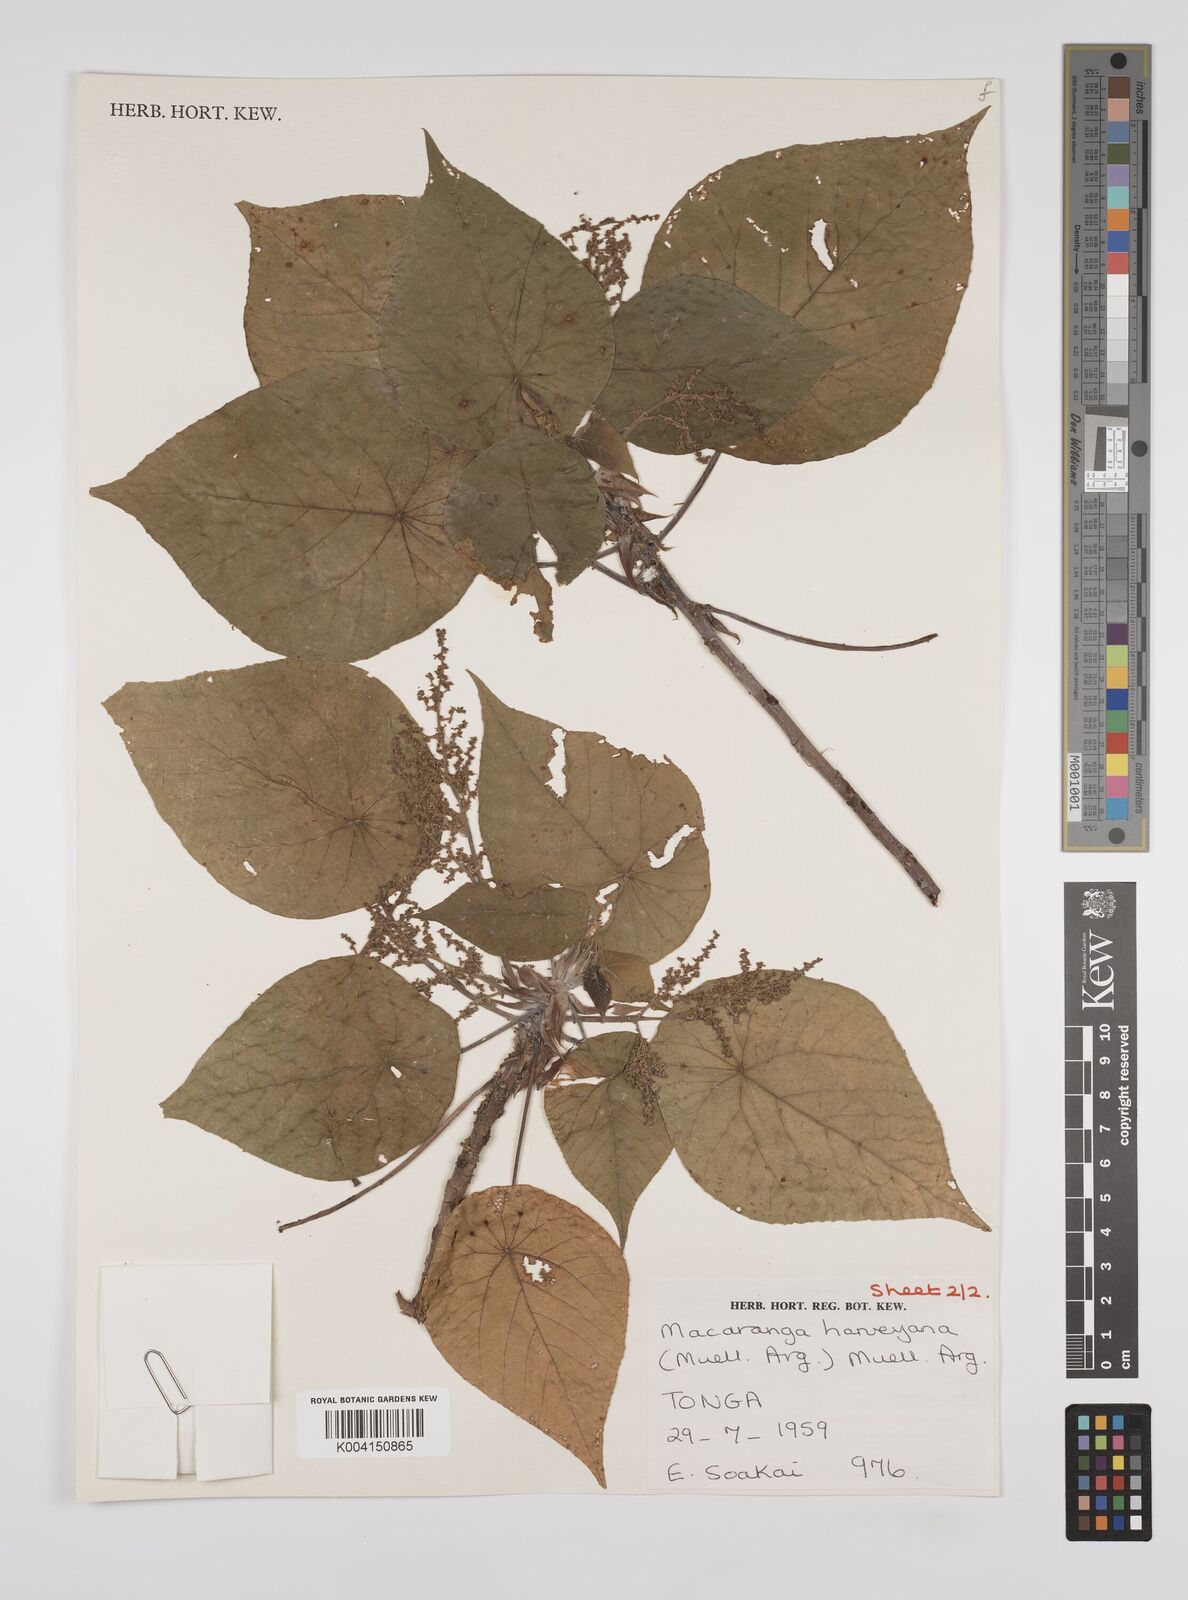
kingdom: Plantae
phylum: Tracheophyta
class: Magnoliopsida
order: Malpighiales
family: Euphorbiaceae
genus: Macaranga
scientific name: Macaranga harveyana
